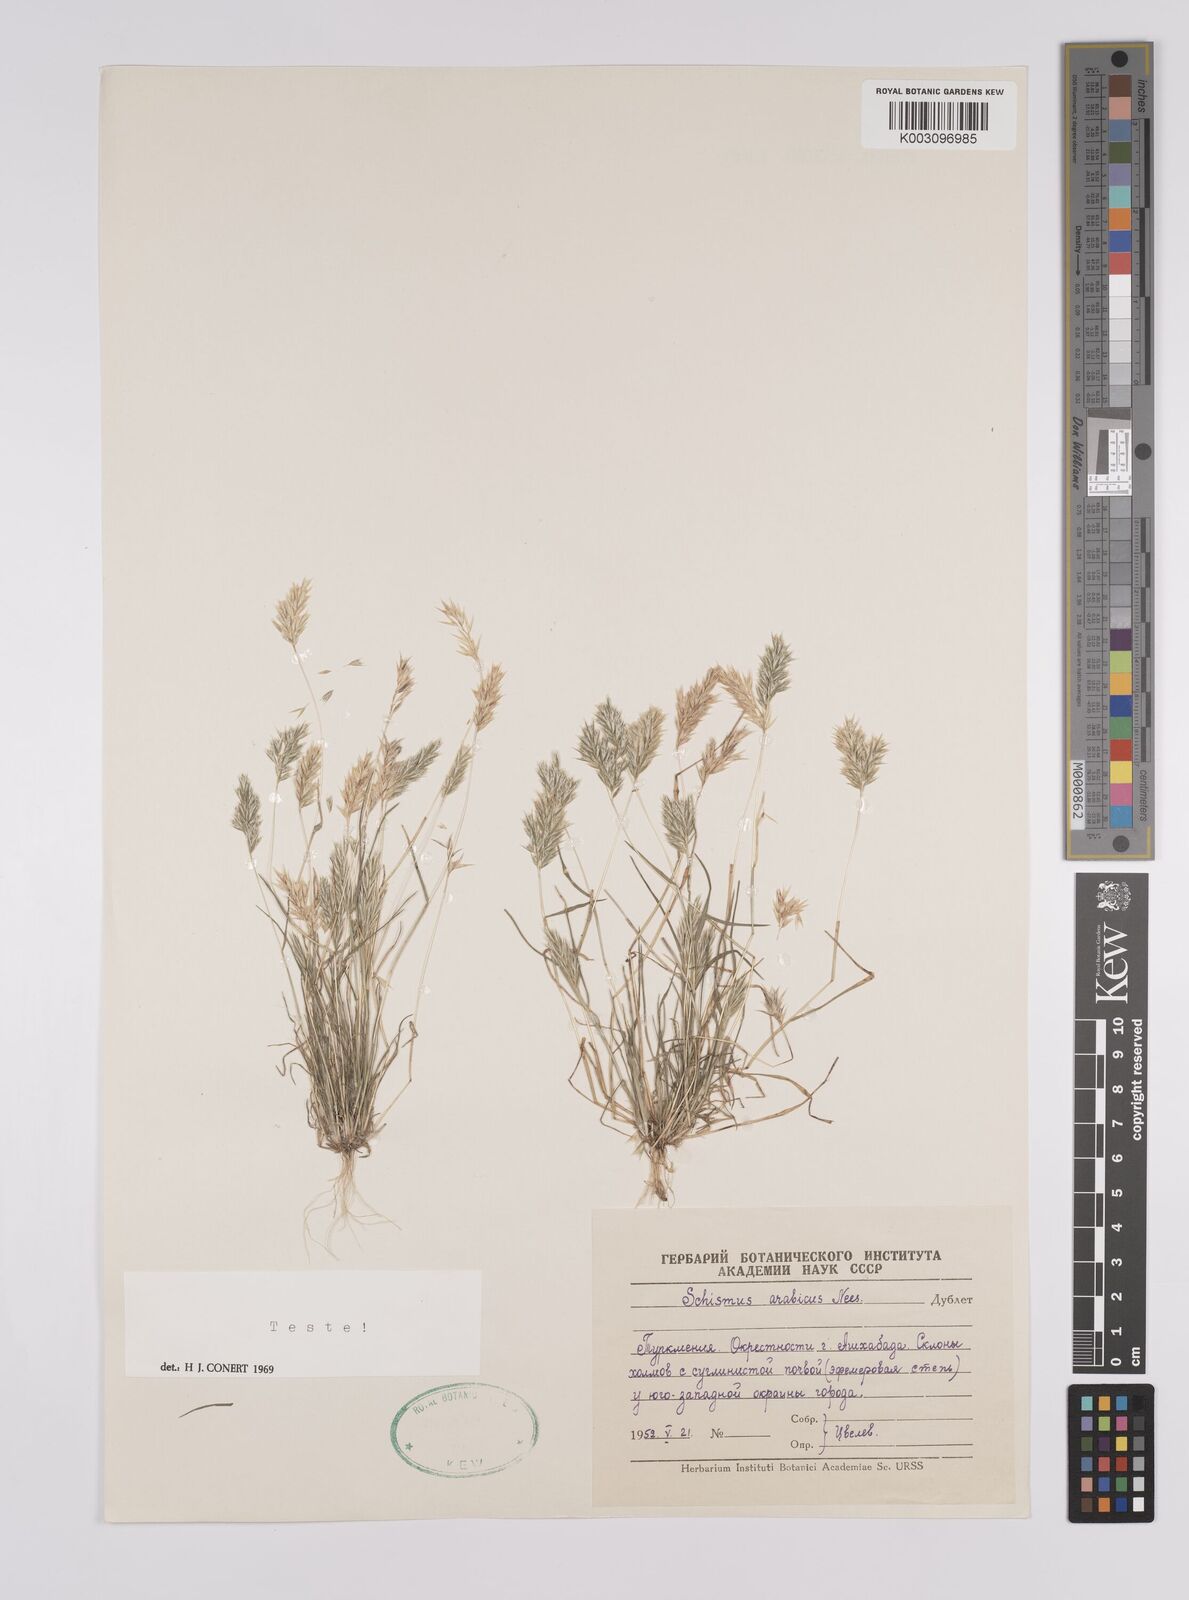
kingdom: Plantae
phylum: Tracheophyta
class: Liliopsida
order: Poales
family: Poaceae
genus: Schismus
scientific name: Schismus arabicus
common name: Arabian schismus
